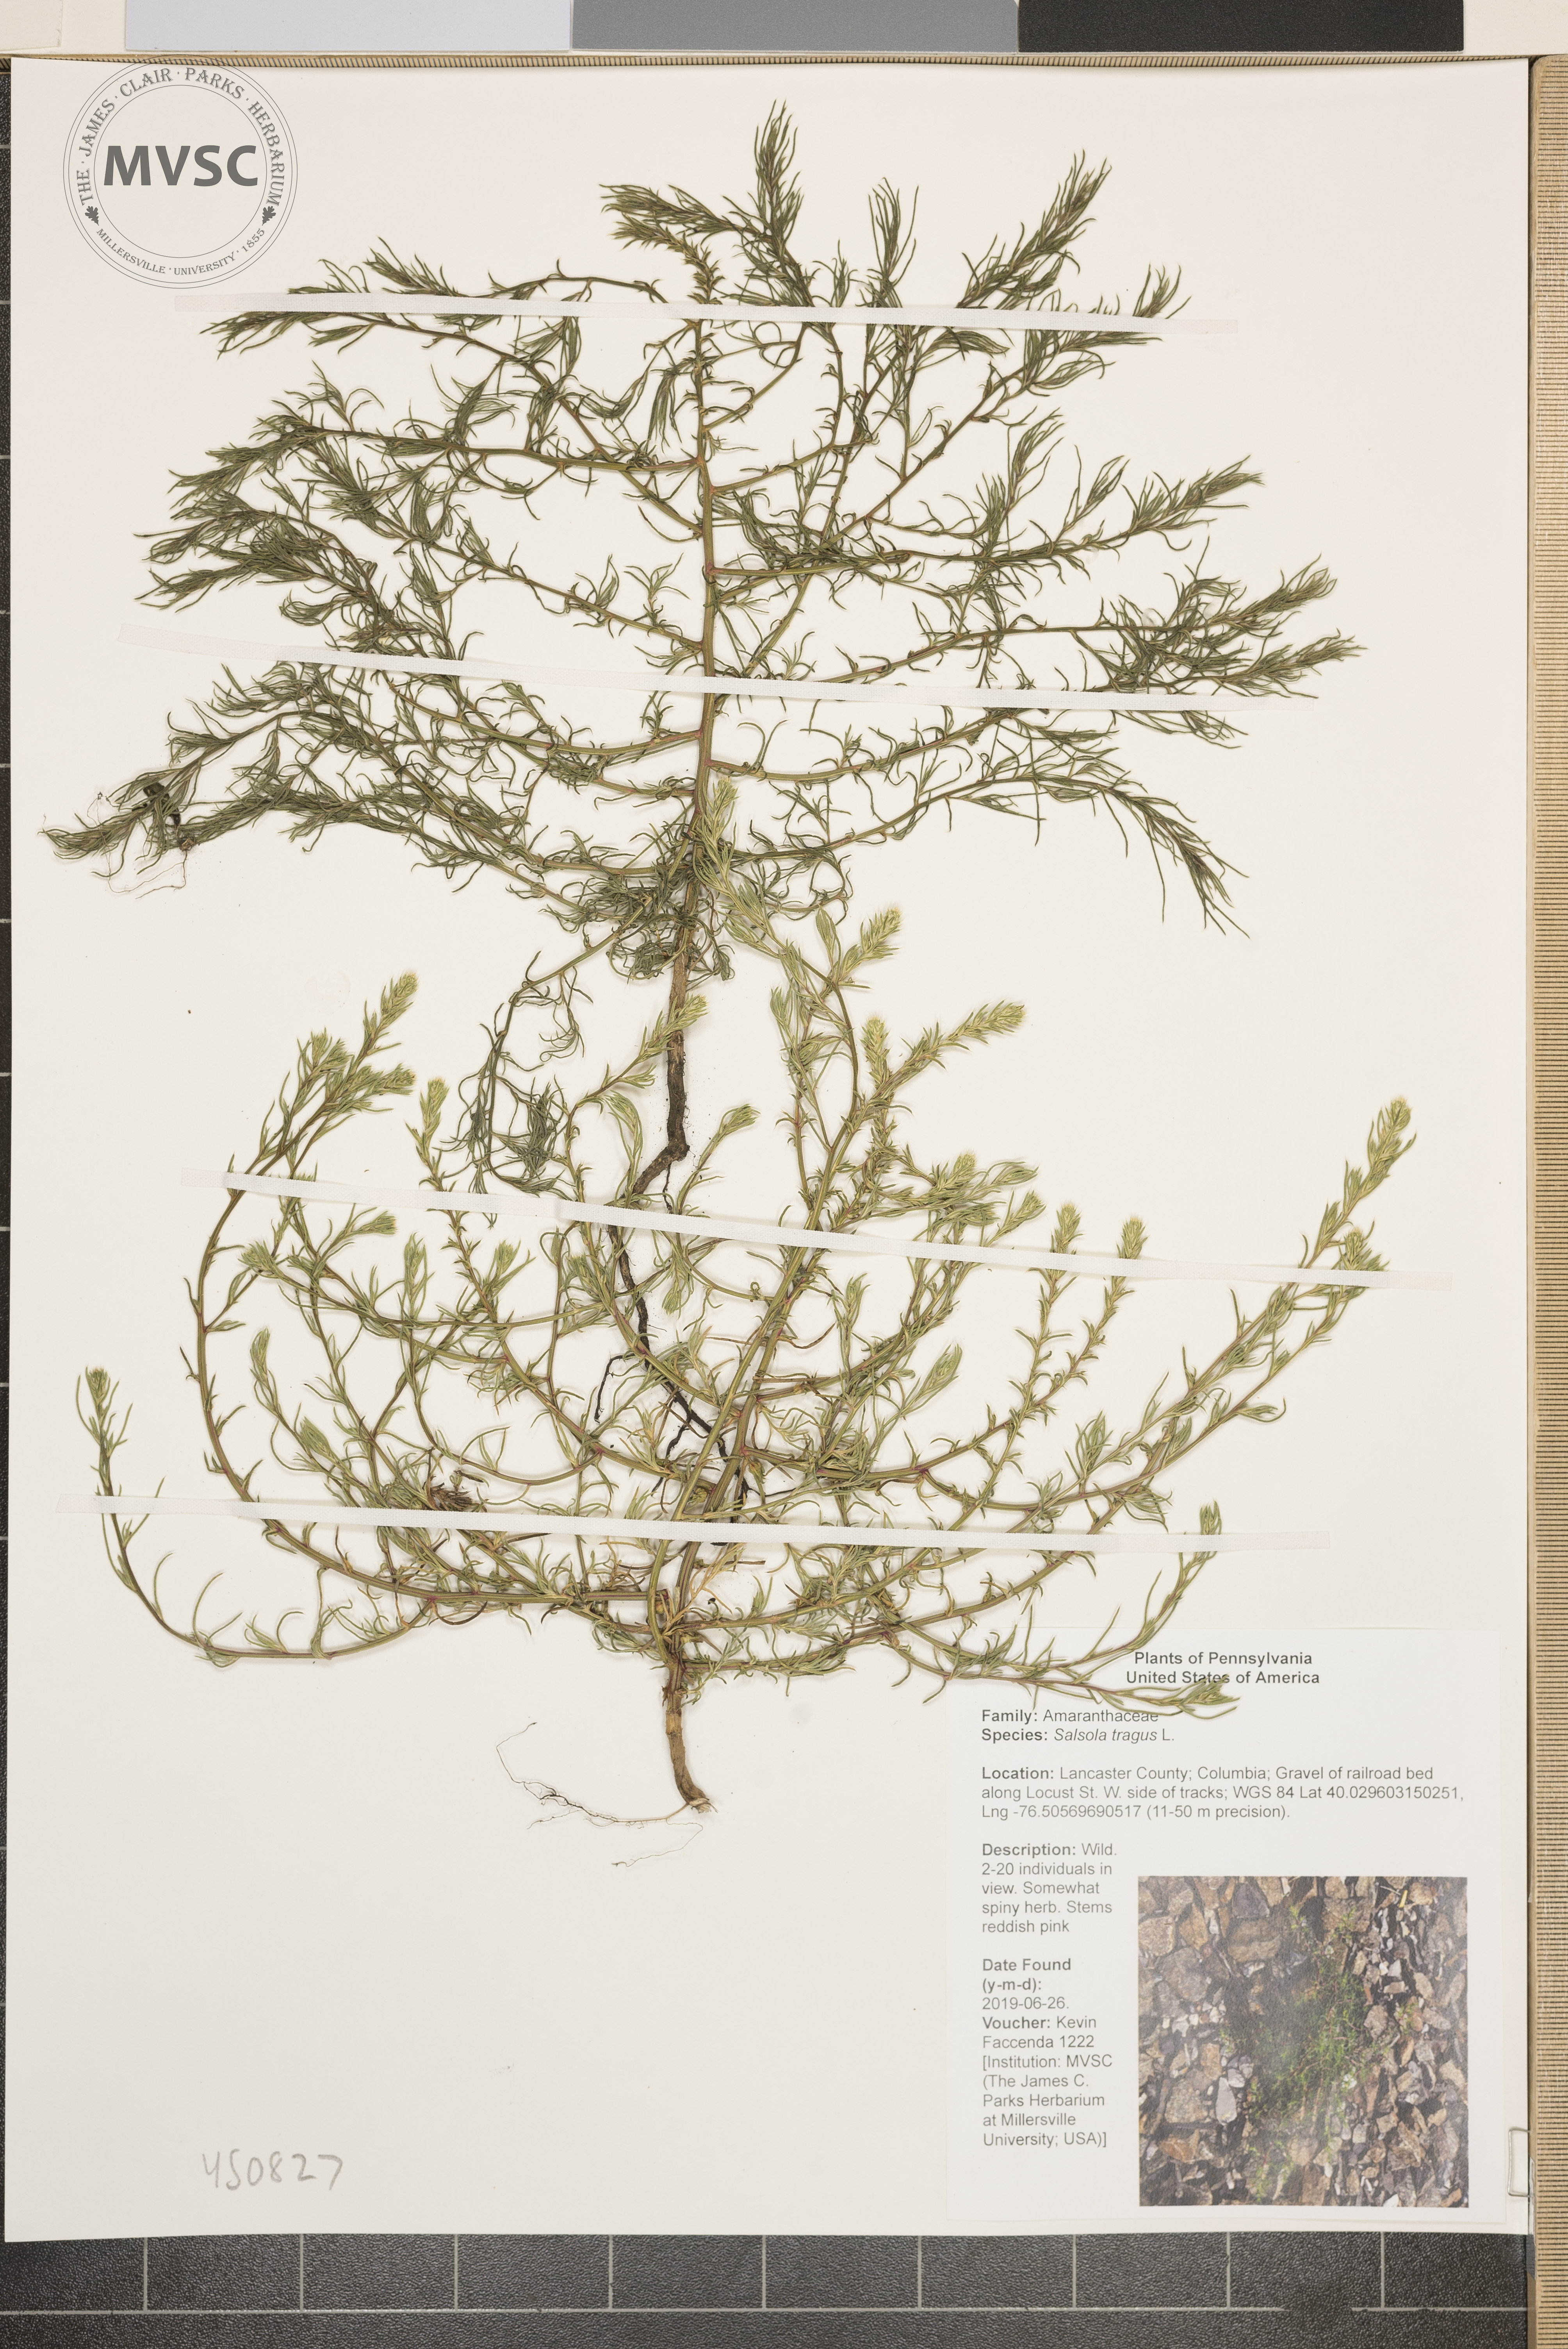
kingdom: Plantae
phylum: Tracheophyta
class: Magnoliopsida
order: Caryophyllales
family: Amaranthaceae
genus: Salsola
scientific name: Salsola tragus
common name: Prickly russian thistle
